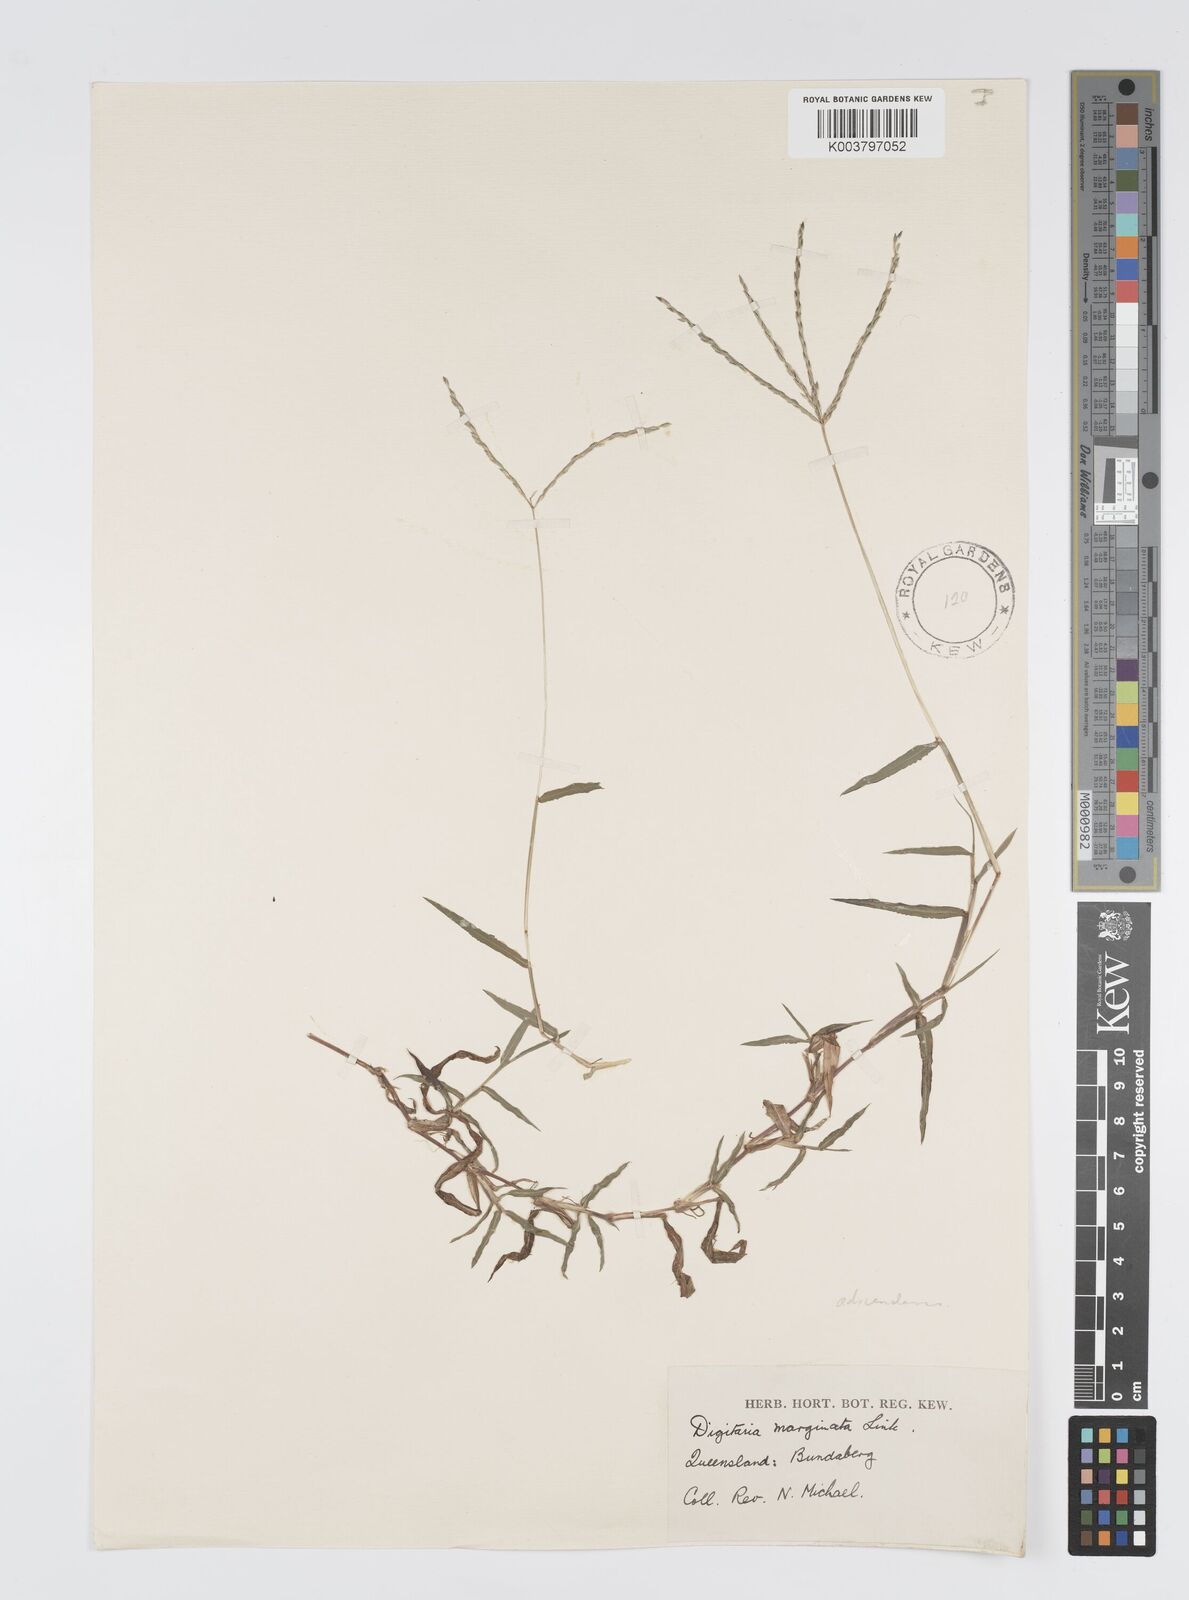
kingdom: Plantae
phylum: Tracheophyta
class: Liliopsida
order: Poales
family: Poaceae
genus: Digitaria
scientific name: Digitaria ciliaris
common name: Tropical finger-grass
